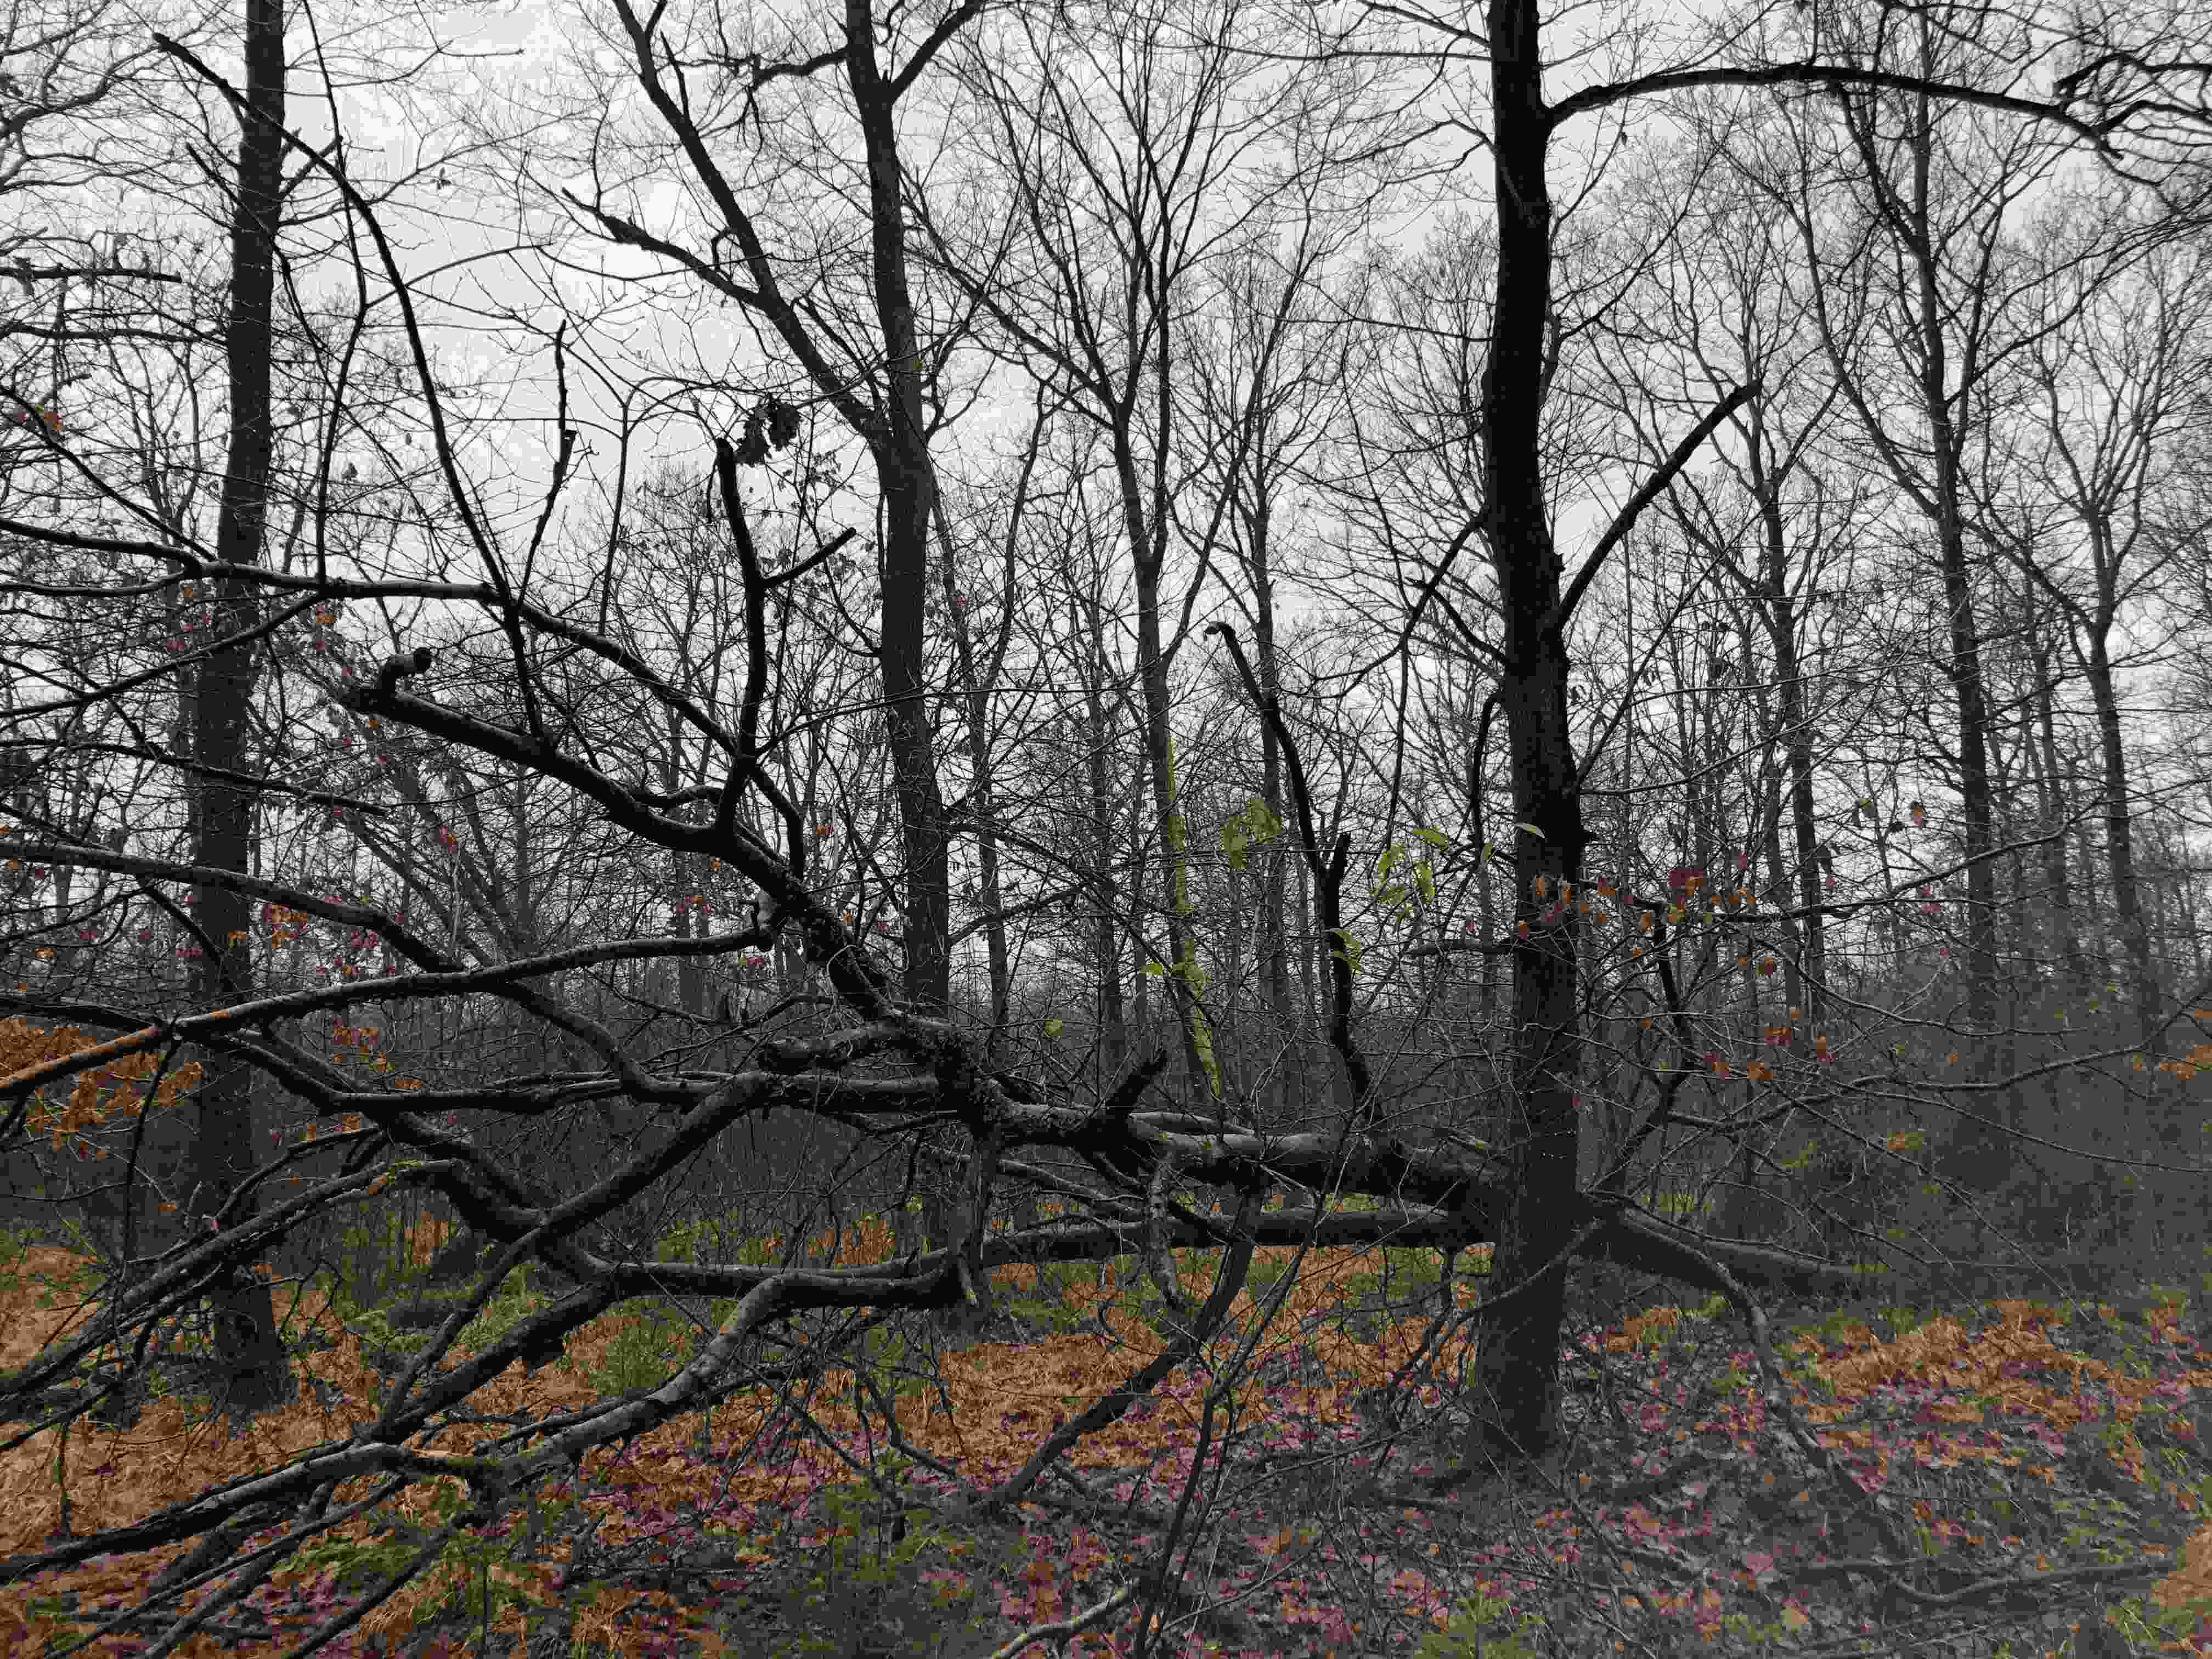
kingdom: Fungi
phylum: Basidiomycota
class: Agaricomycetes
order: Polyporales
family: Meruliaceae
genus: Phlebia
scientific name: Phlebia radiata
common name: stråle-åresvamp
